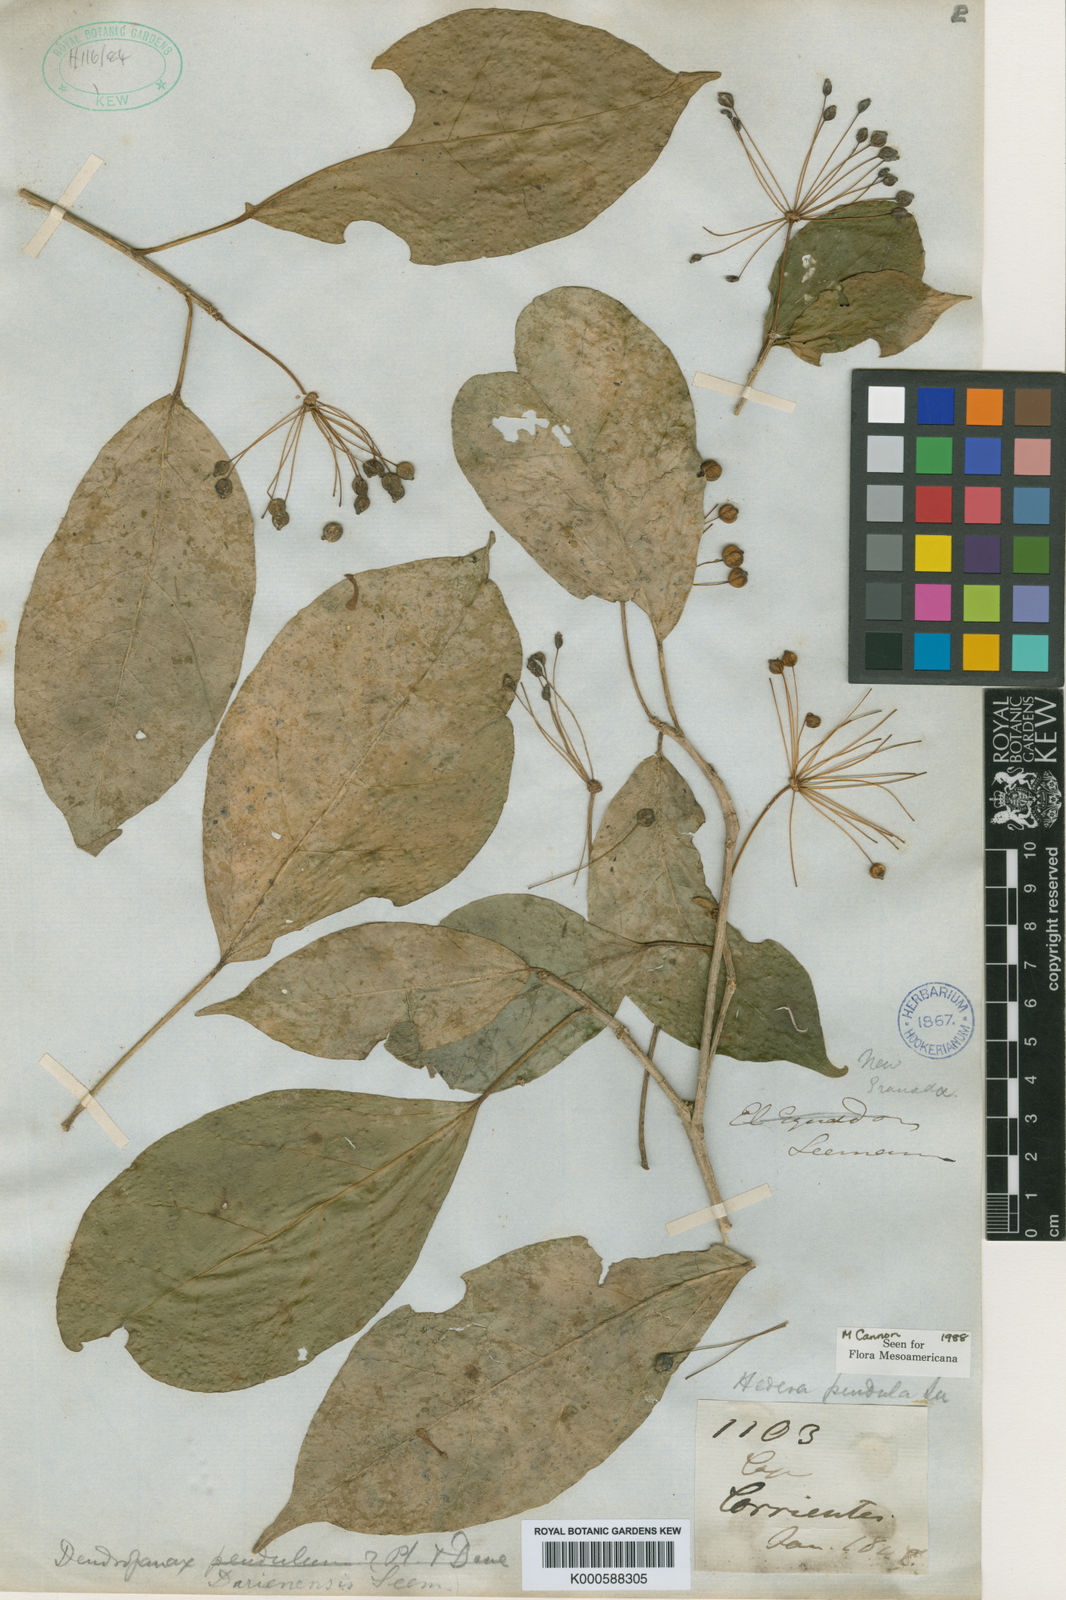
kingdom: Plantae
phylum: Tracheophyta
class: Magnoliopsida
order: Apiales
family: Araliaceae
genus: Dendropanax
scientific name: Dendropanax dariensis
